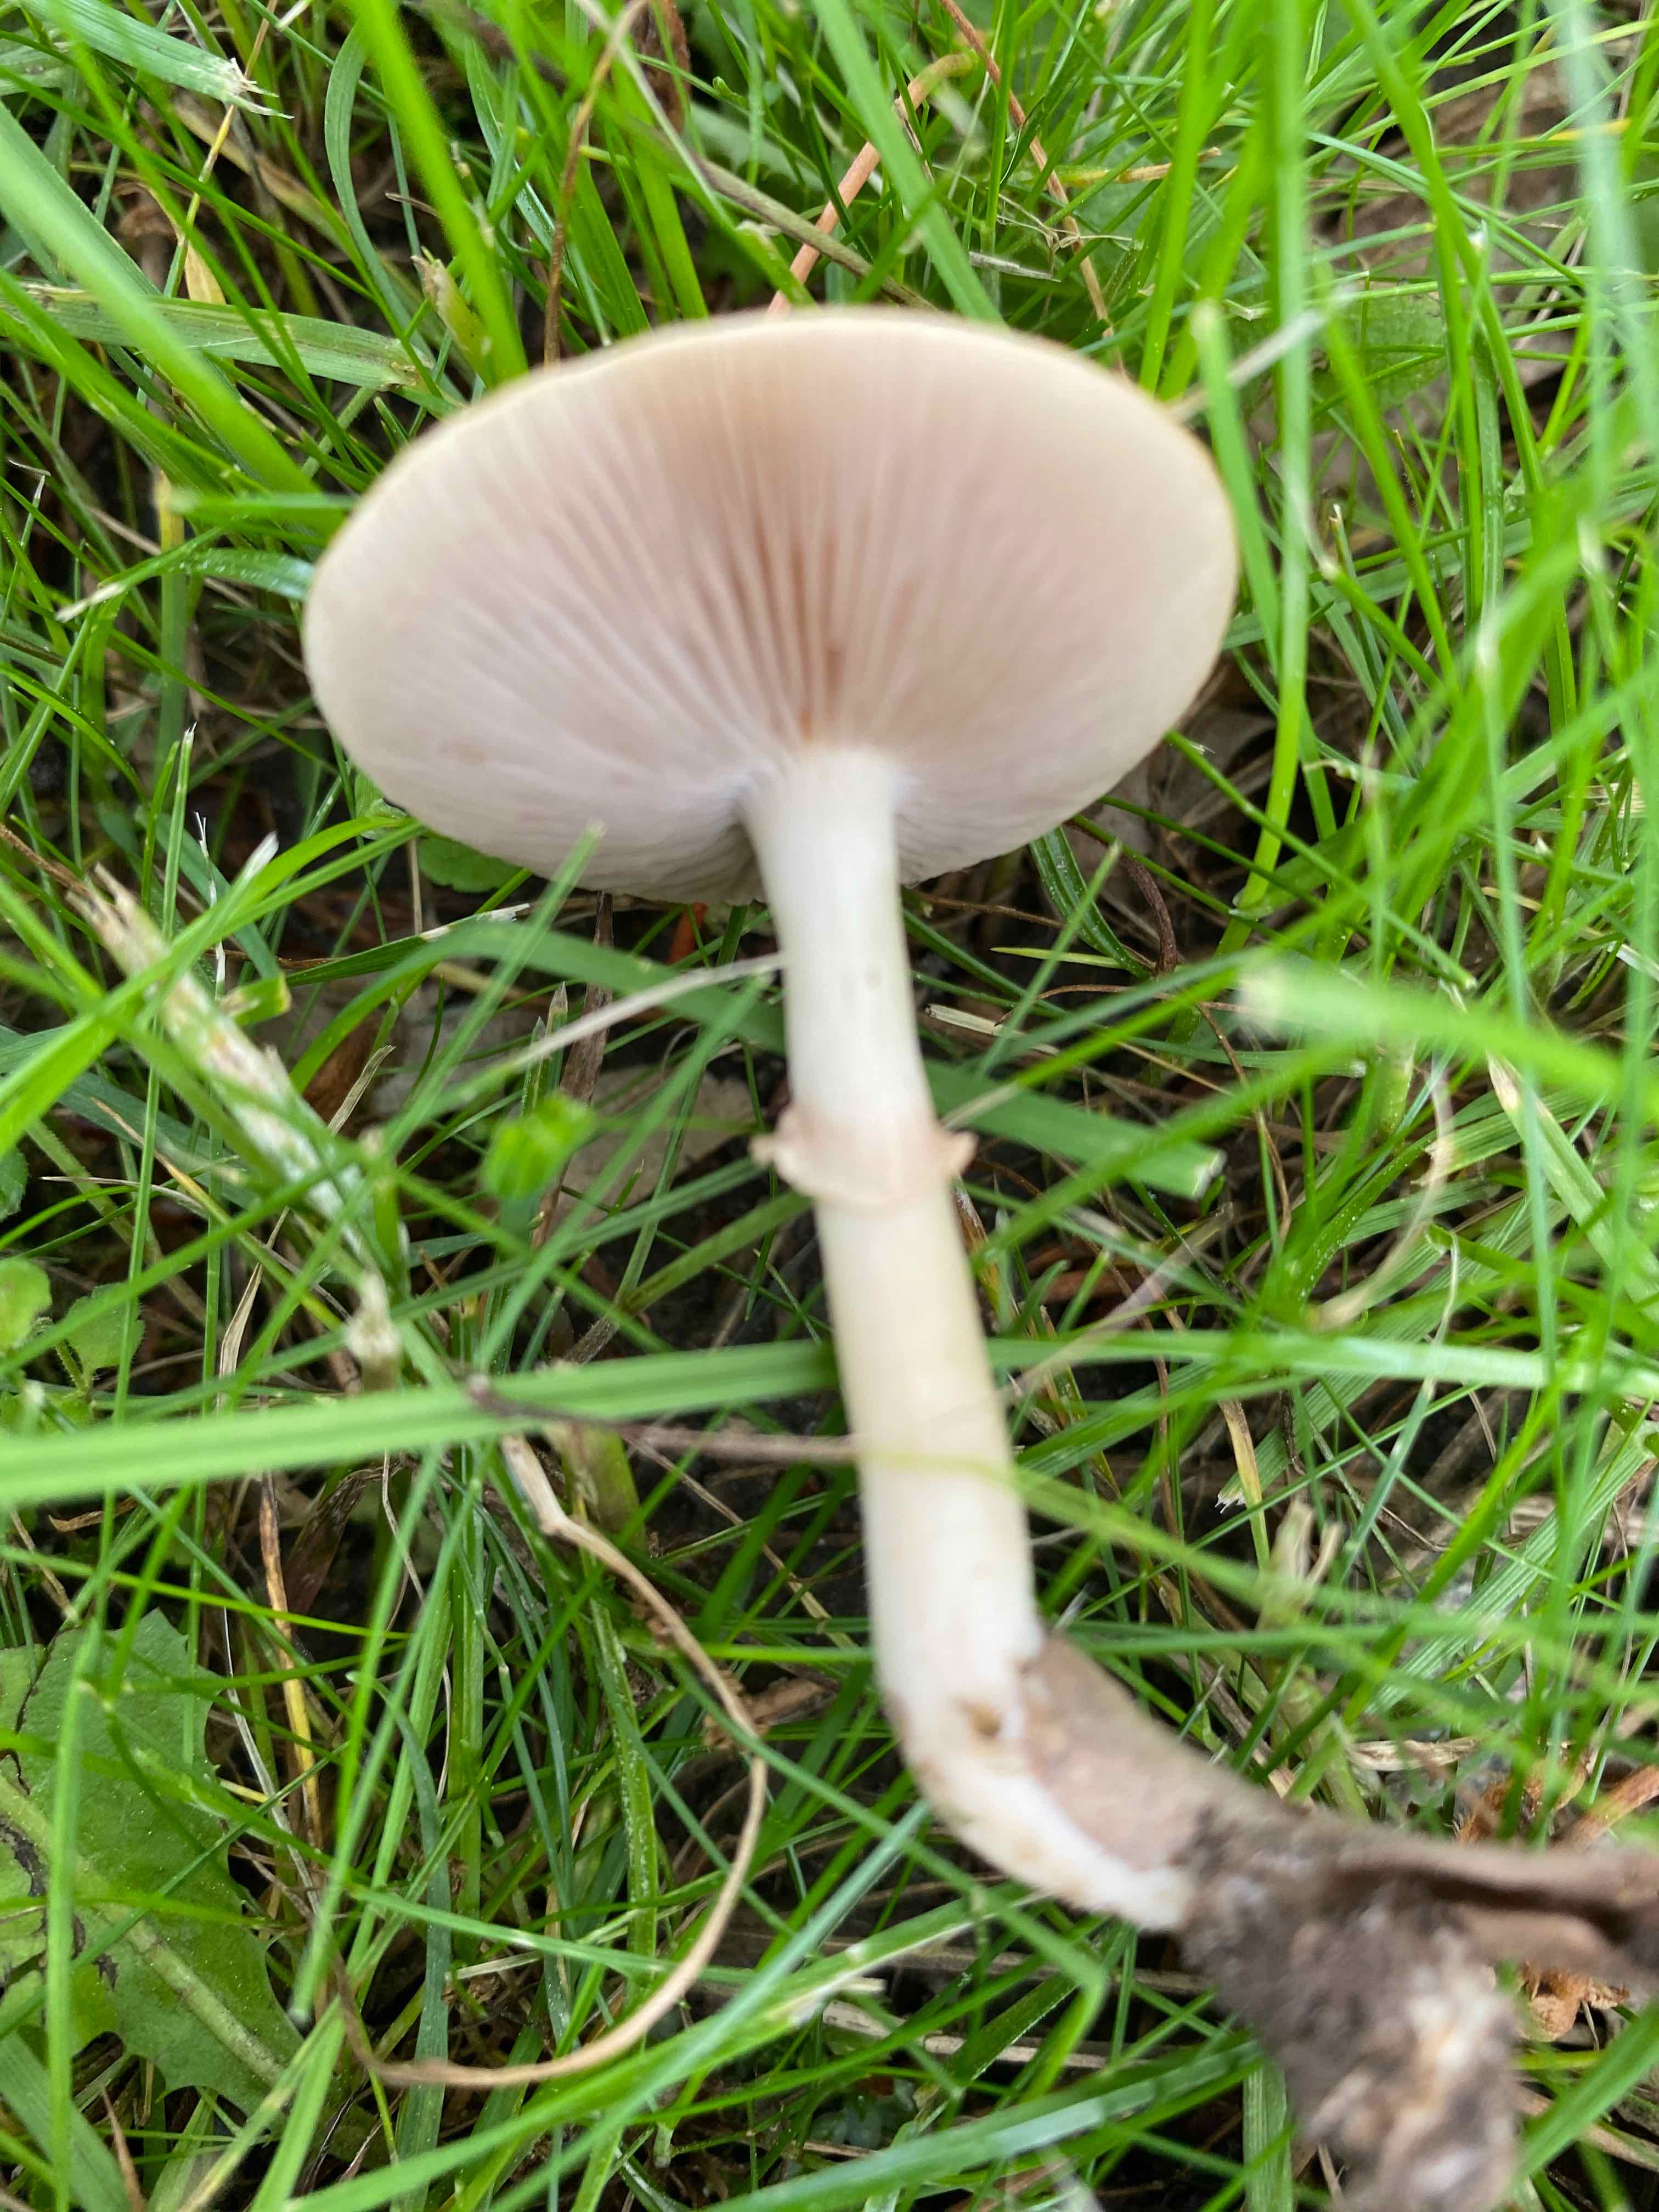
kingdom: Fungi
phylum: Basidiomycota
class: Agaricomycetes
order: Agaricales
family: Strophariaceae
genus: Agrocybe
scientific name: Agrocybe praecox
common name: tidlig agerhat
